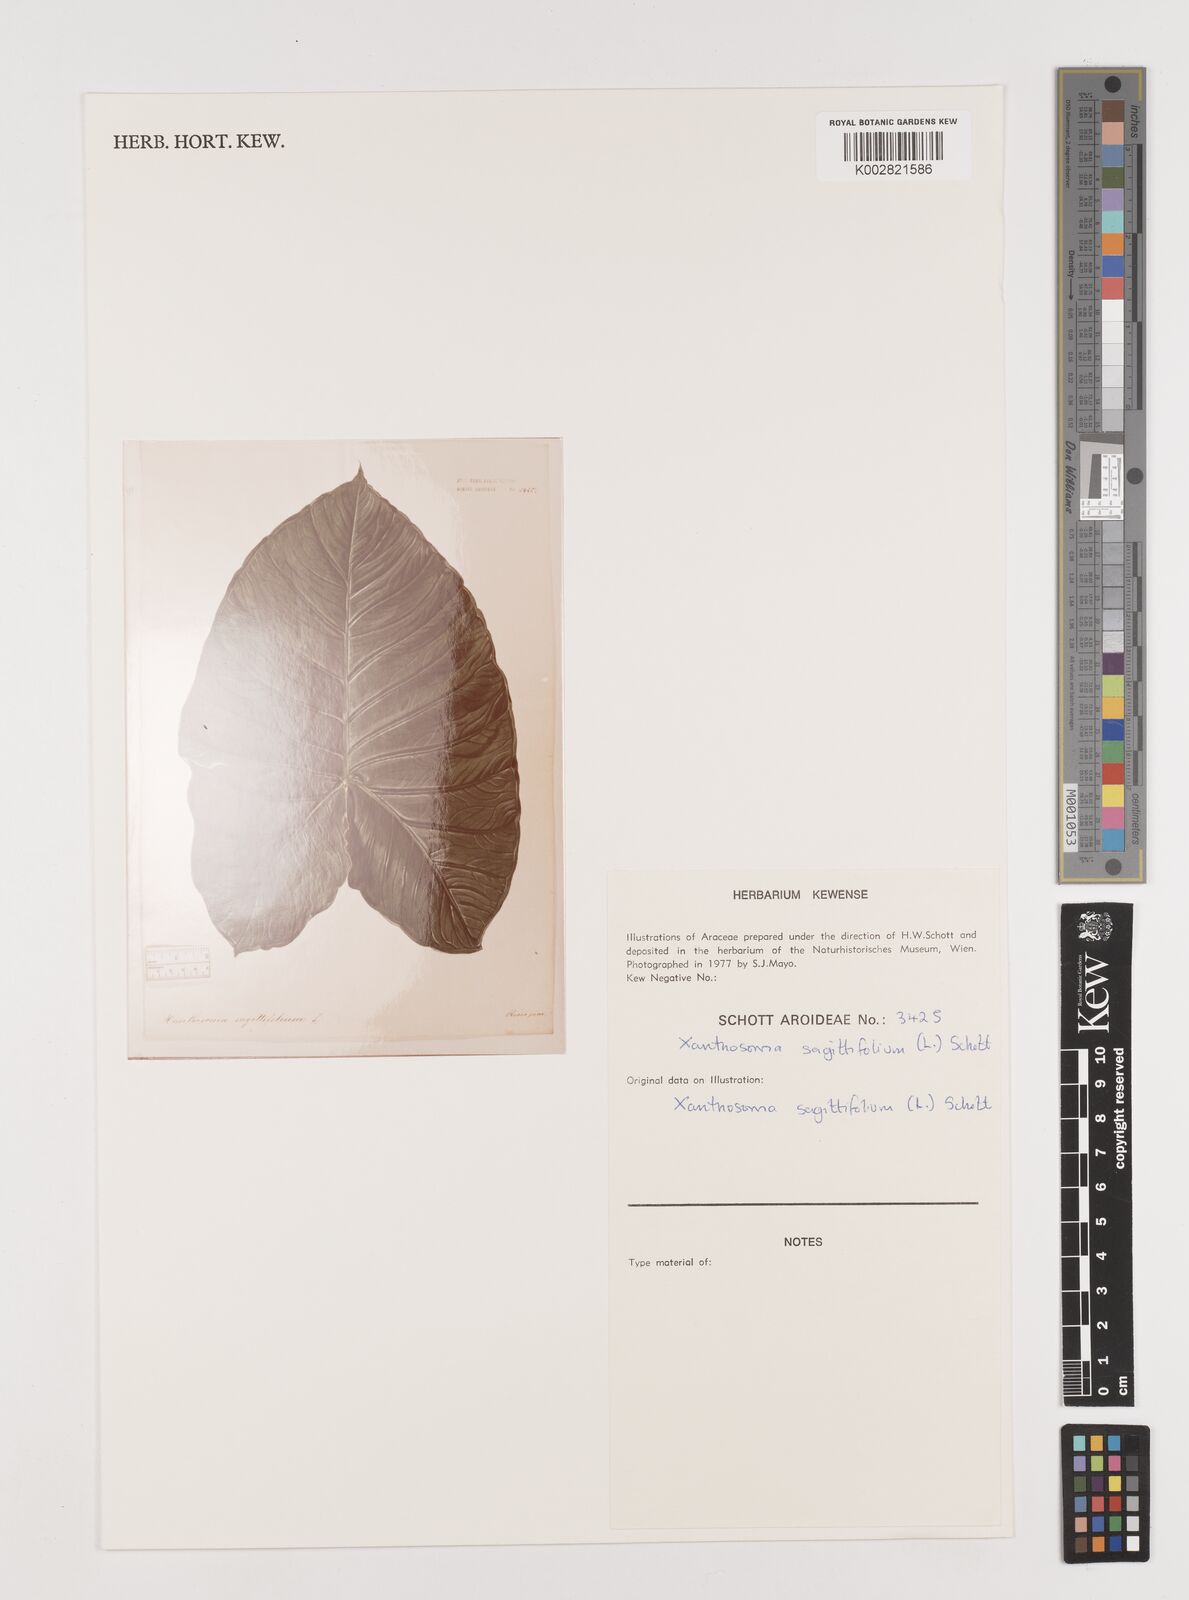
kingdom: Plantae
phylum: Tracheophyta
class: Liliopsida
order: Alismatales
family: Araceae
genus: Xanthosoma
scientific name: Xanthosoma sagittifolium
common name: Arrowleaf elephant's ear
